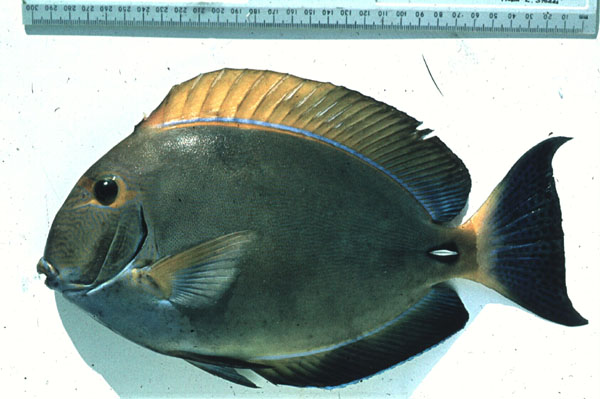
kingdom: Animalia
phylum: Chordata
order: Perciformes
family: Acanthuridae
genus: Acanthurus
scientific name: Acanthurus mata
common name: Bleeker's surgeonfish
